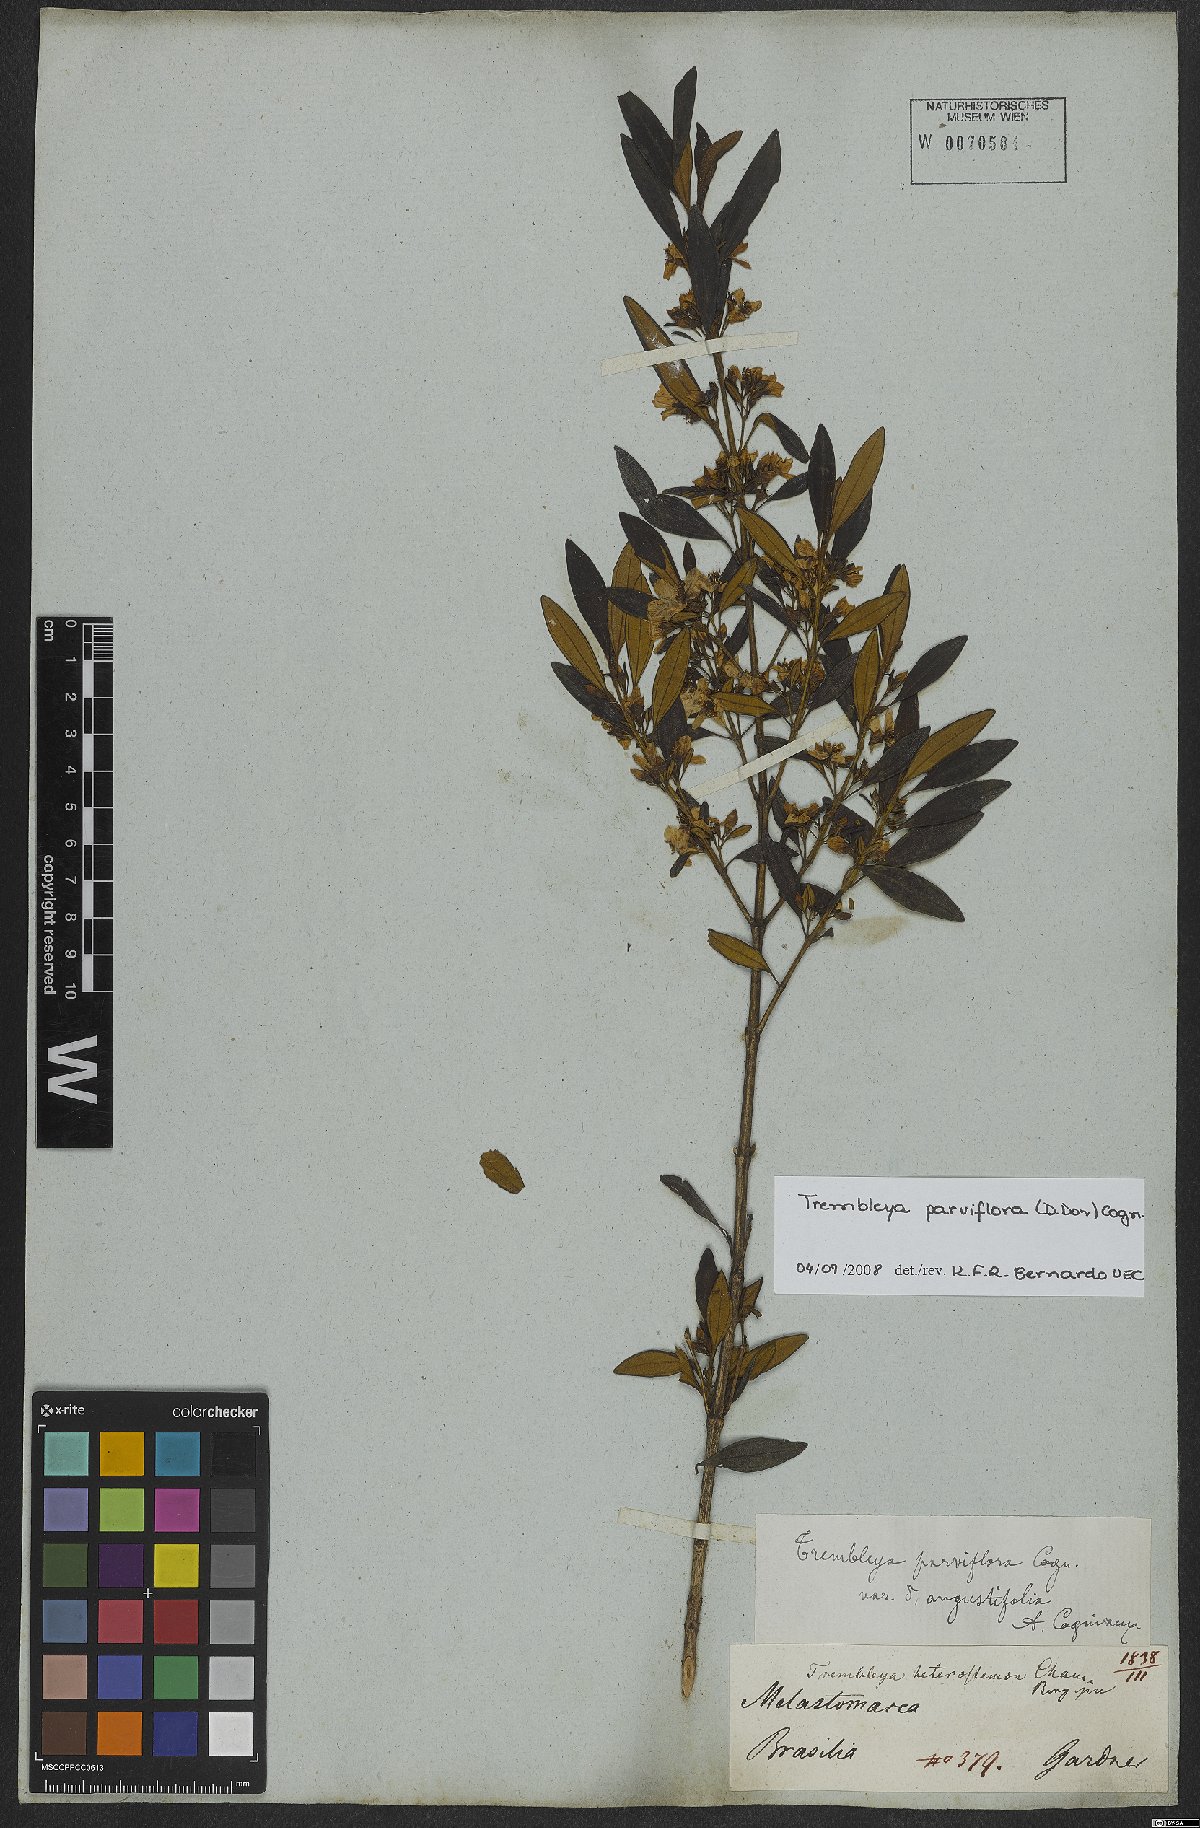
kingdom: Plantae
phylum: Tracheophyta
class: Magnoliopsida
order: Myrtales
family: Melastomataceae
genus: Microlicia
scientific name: Microlicia parviflora
